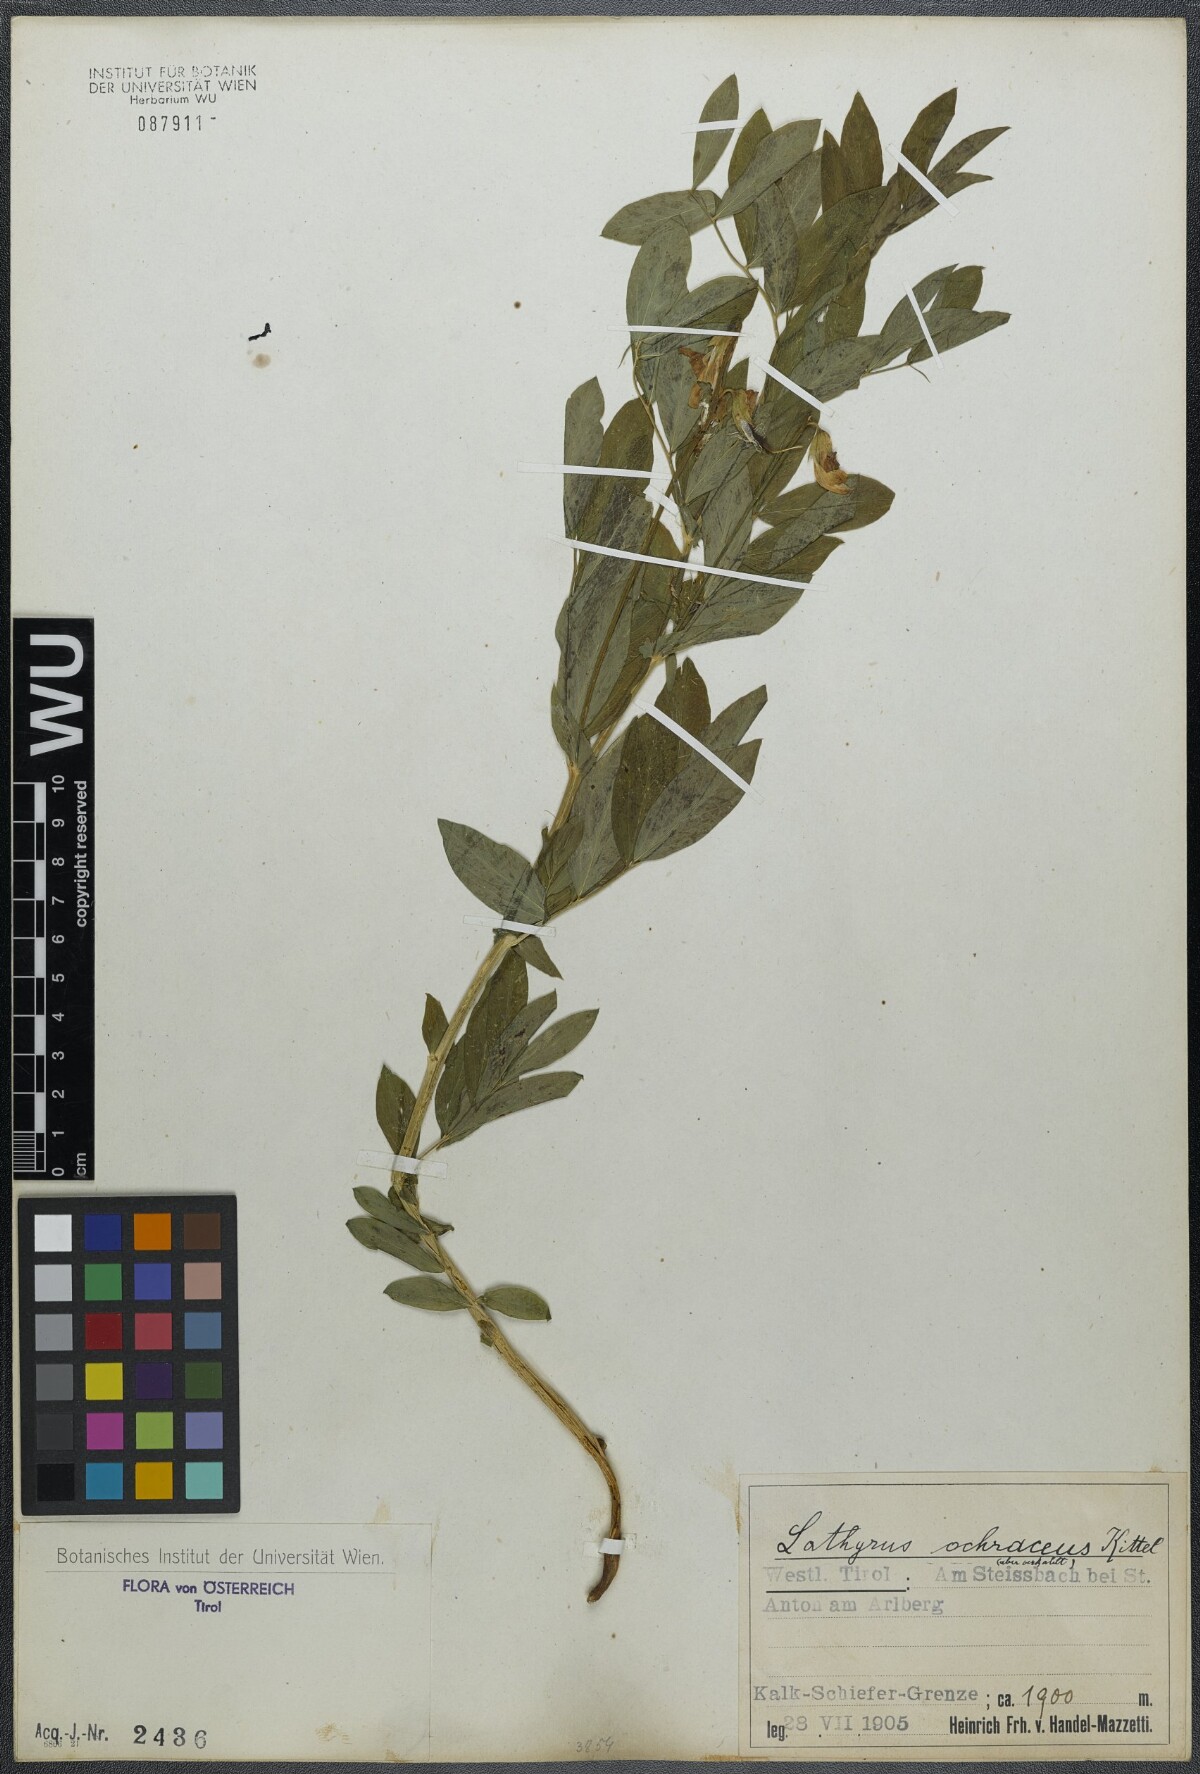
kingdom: Plantae
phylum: Tracheophyta
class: Magnoliopsida
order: Fabales
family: Fabaceae
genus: Lathyrus
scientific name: Lathyrus laevigatus
